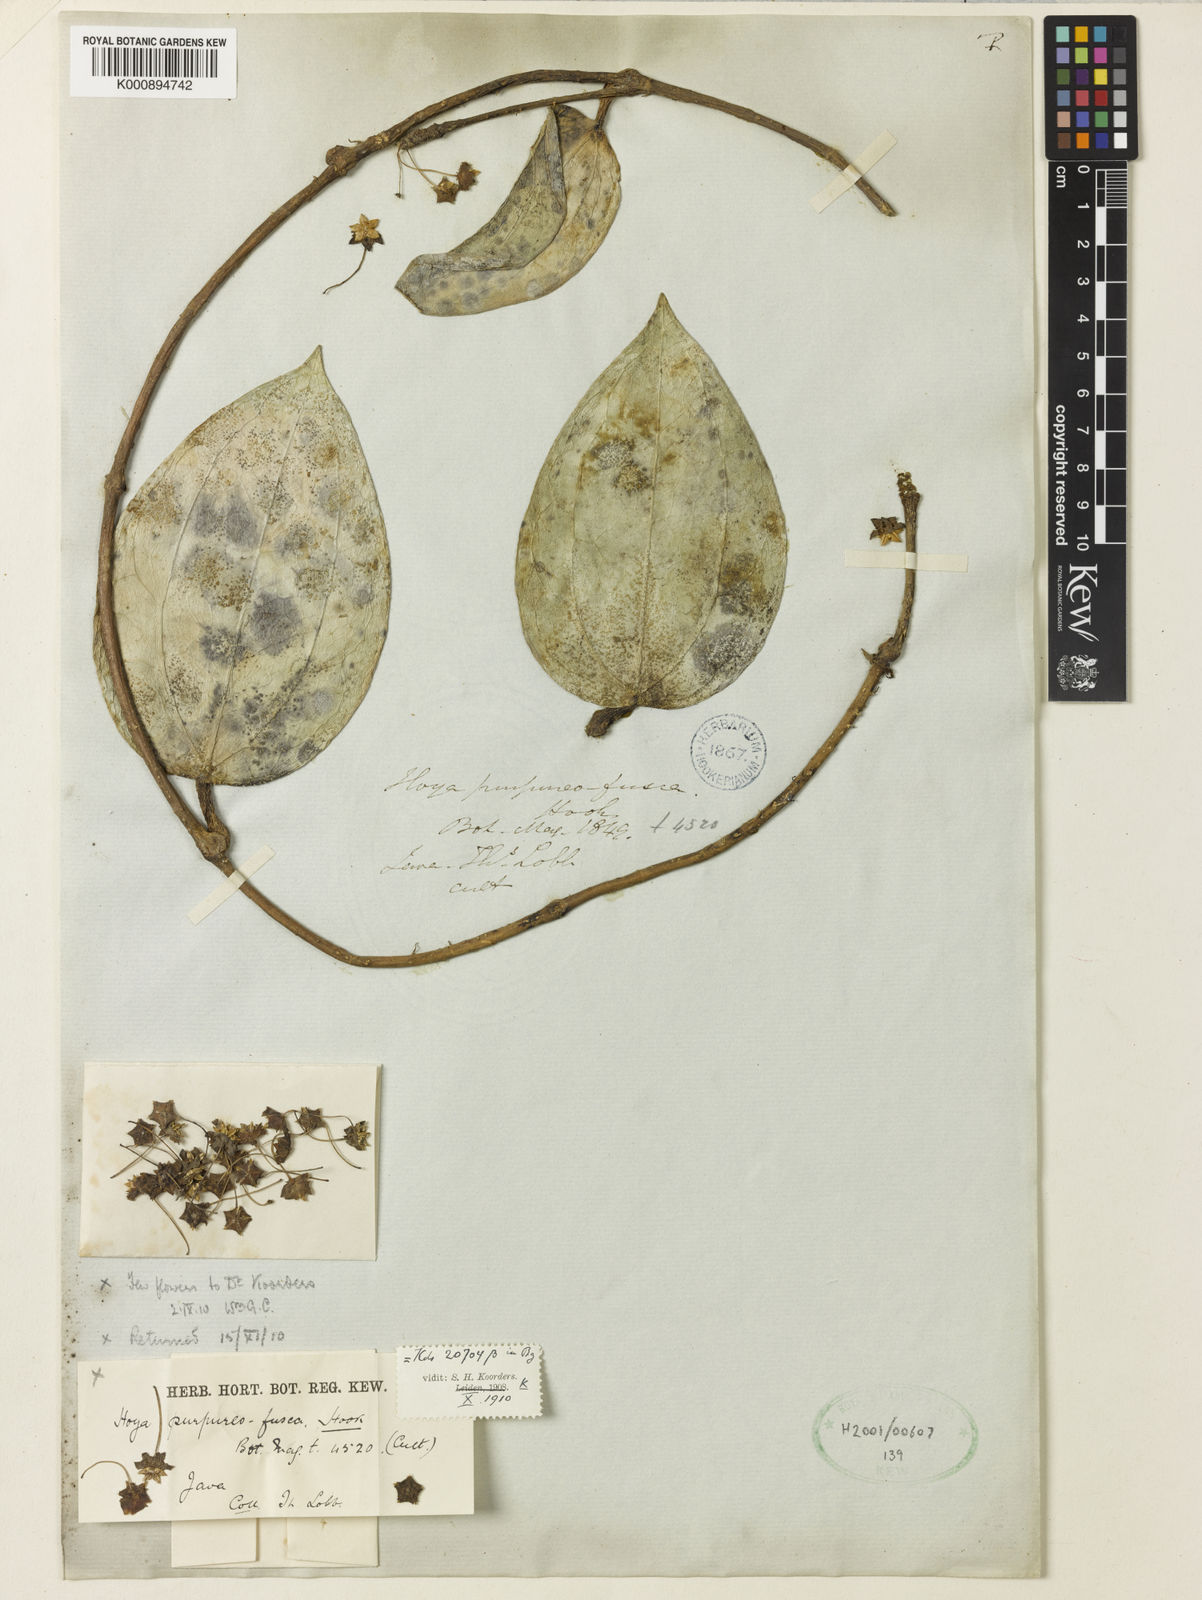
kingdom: Plantae
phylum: Tracheophyta
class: Magnoliopsida
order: Gentianales
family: Apocynaceae
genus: Hoya
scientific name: Hoya purpureofusca
